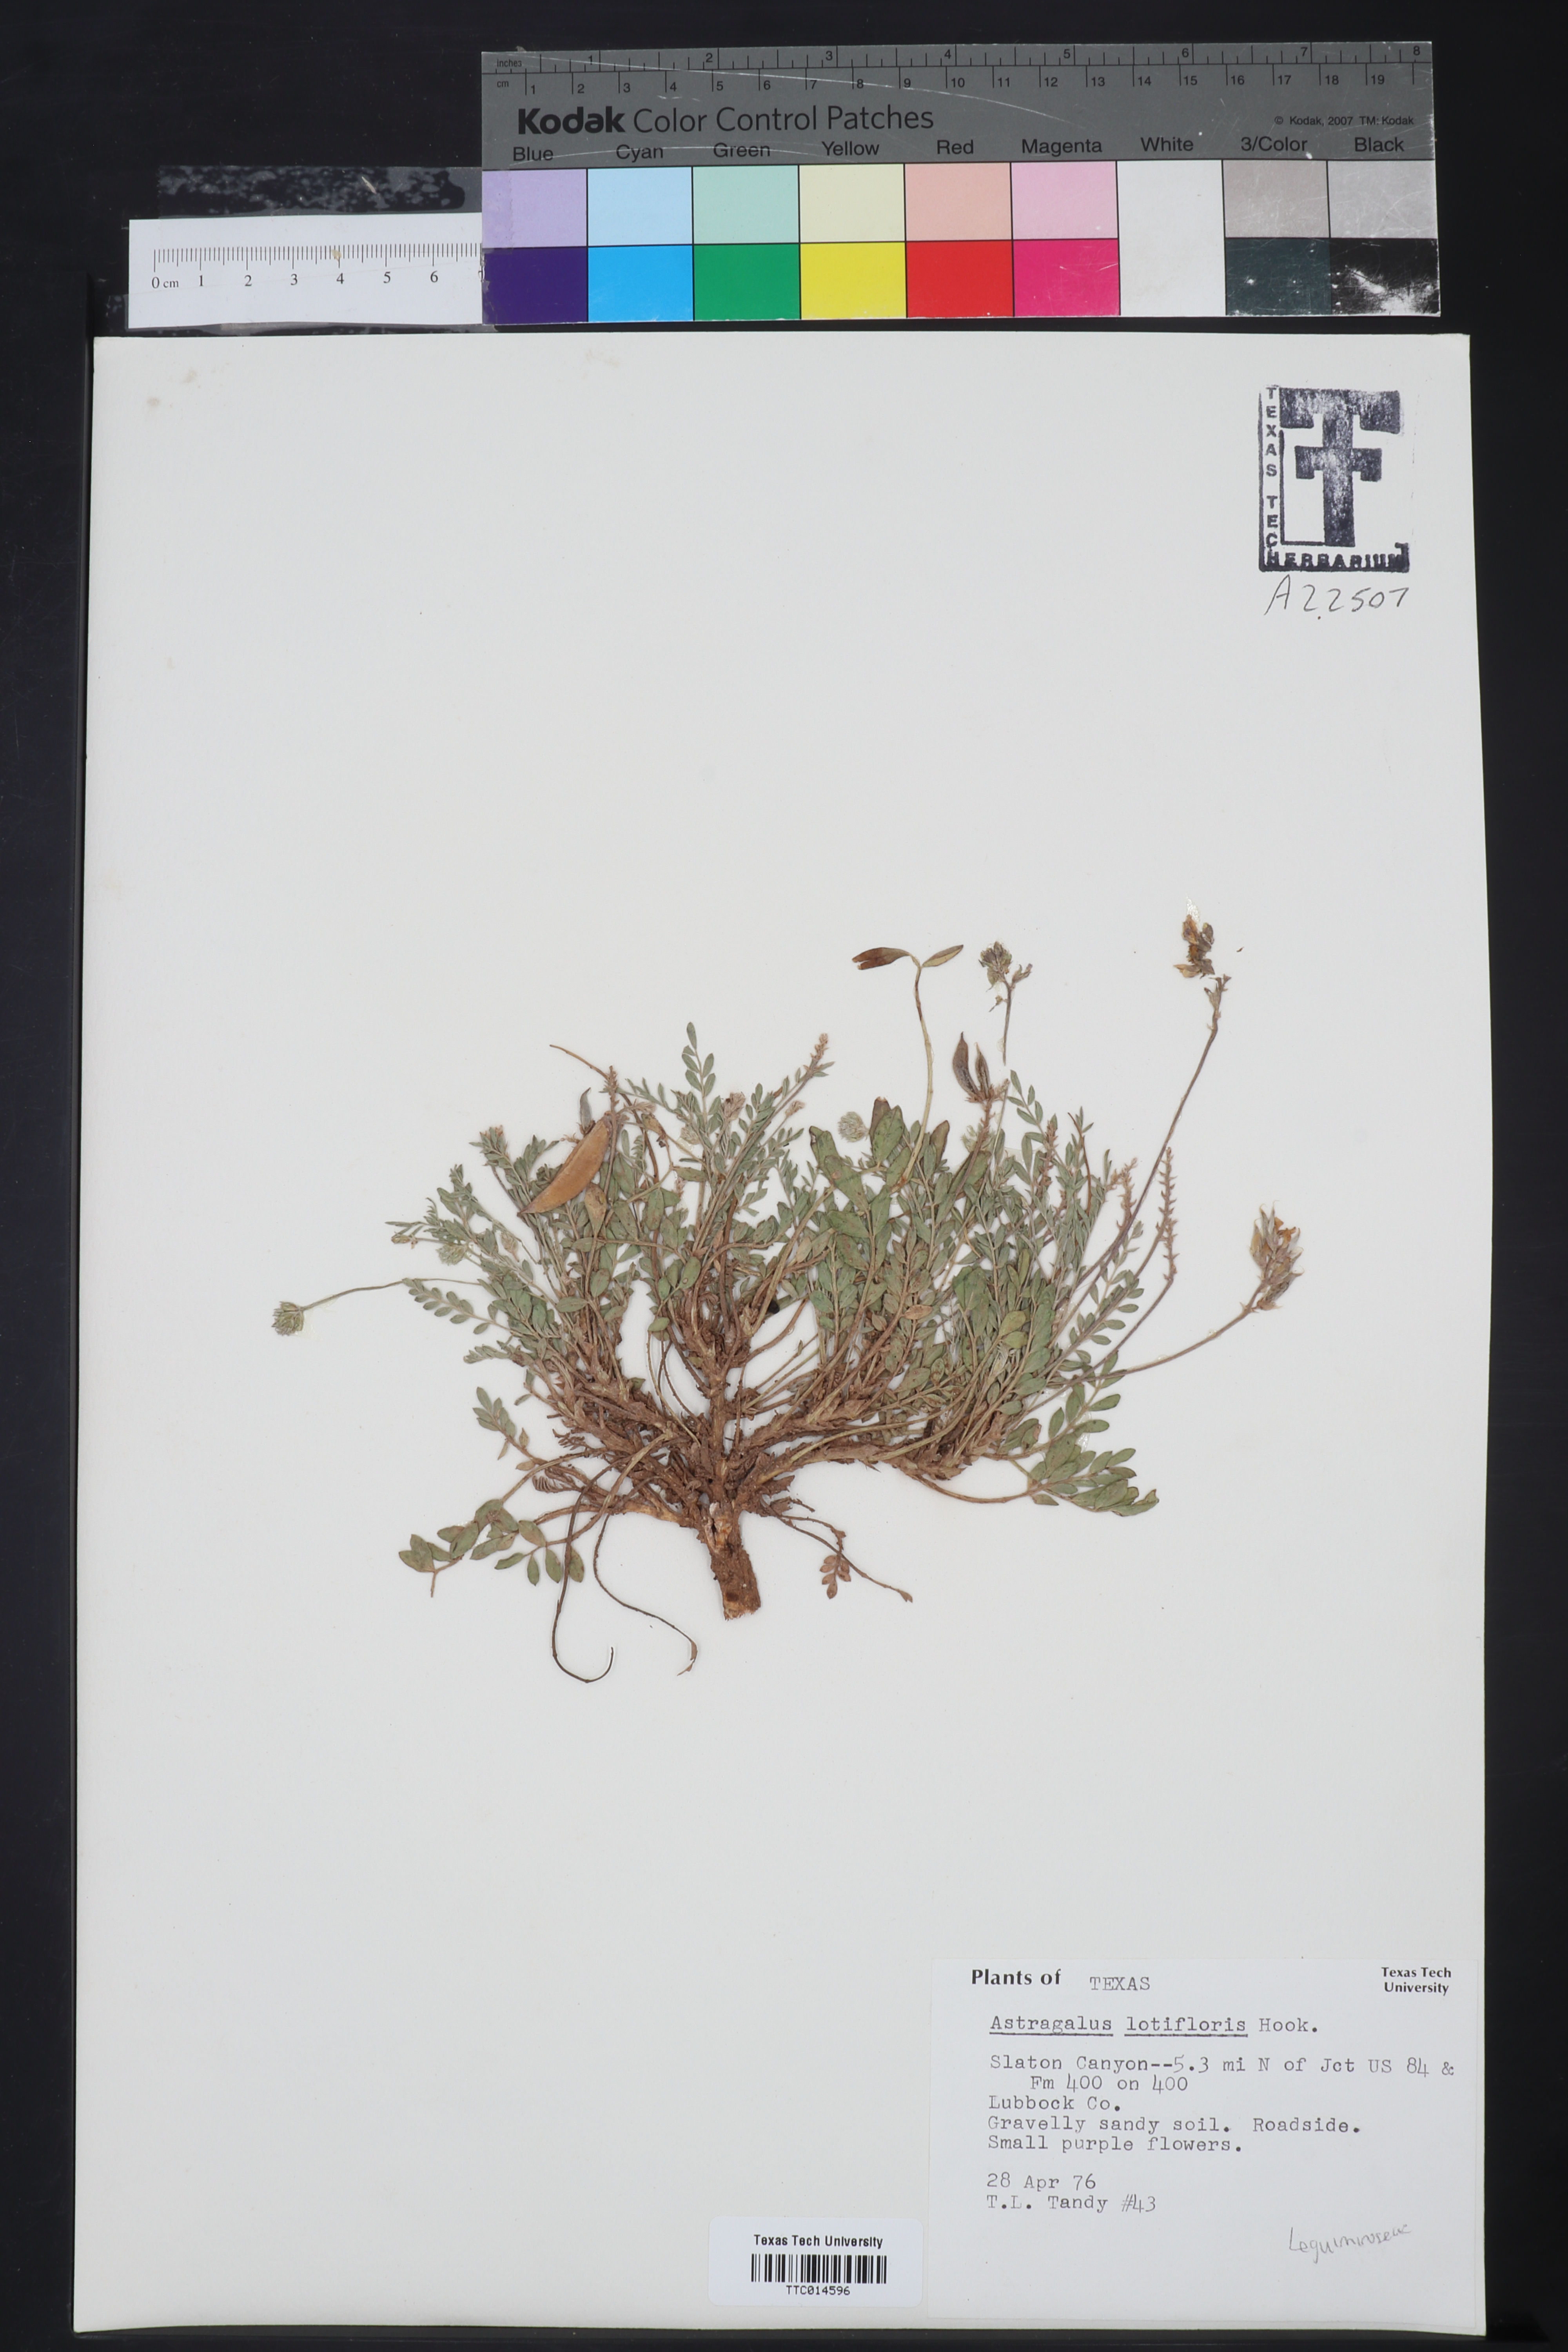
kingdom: Plantae
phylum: Tracheophyta
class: Magnoliopsida
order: Fabales
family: Fabaceae
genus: Astragalus
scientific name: Astragalus lotiflorus
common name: Lotus milk-vetch
